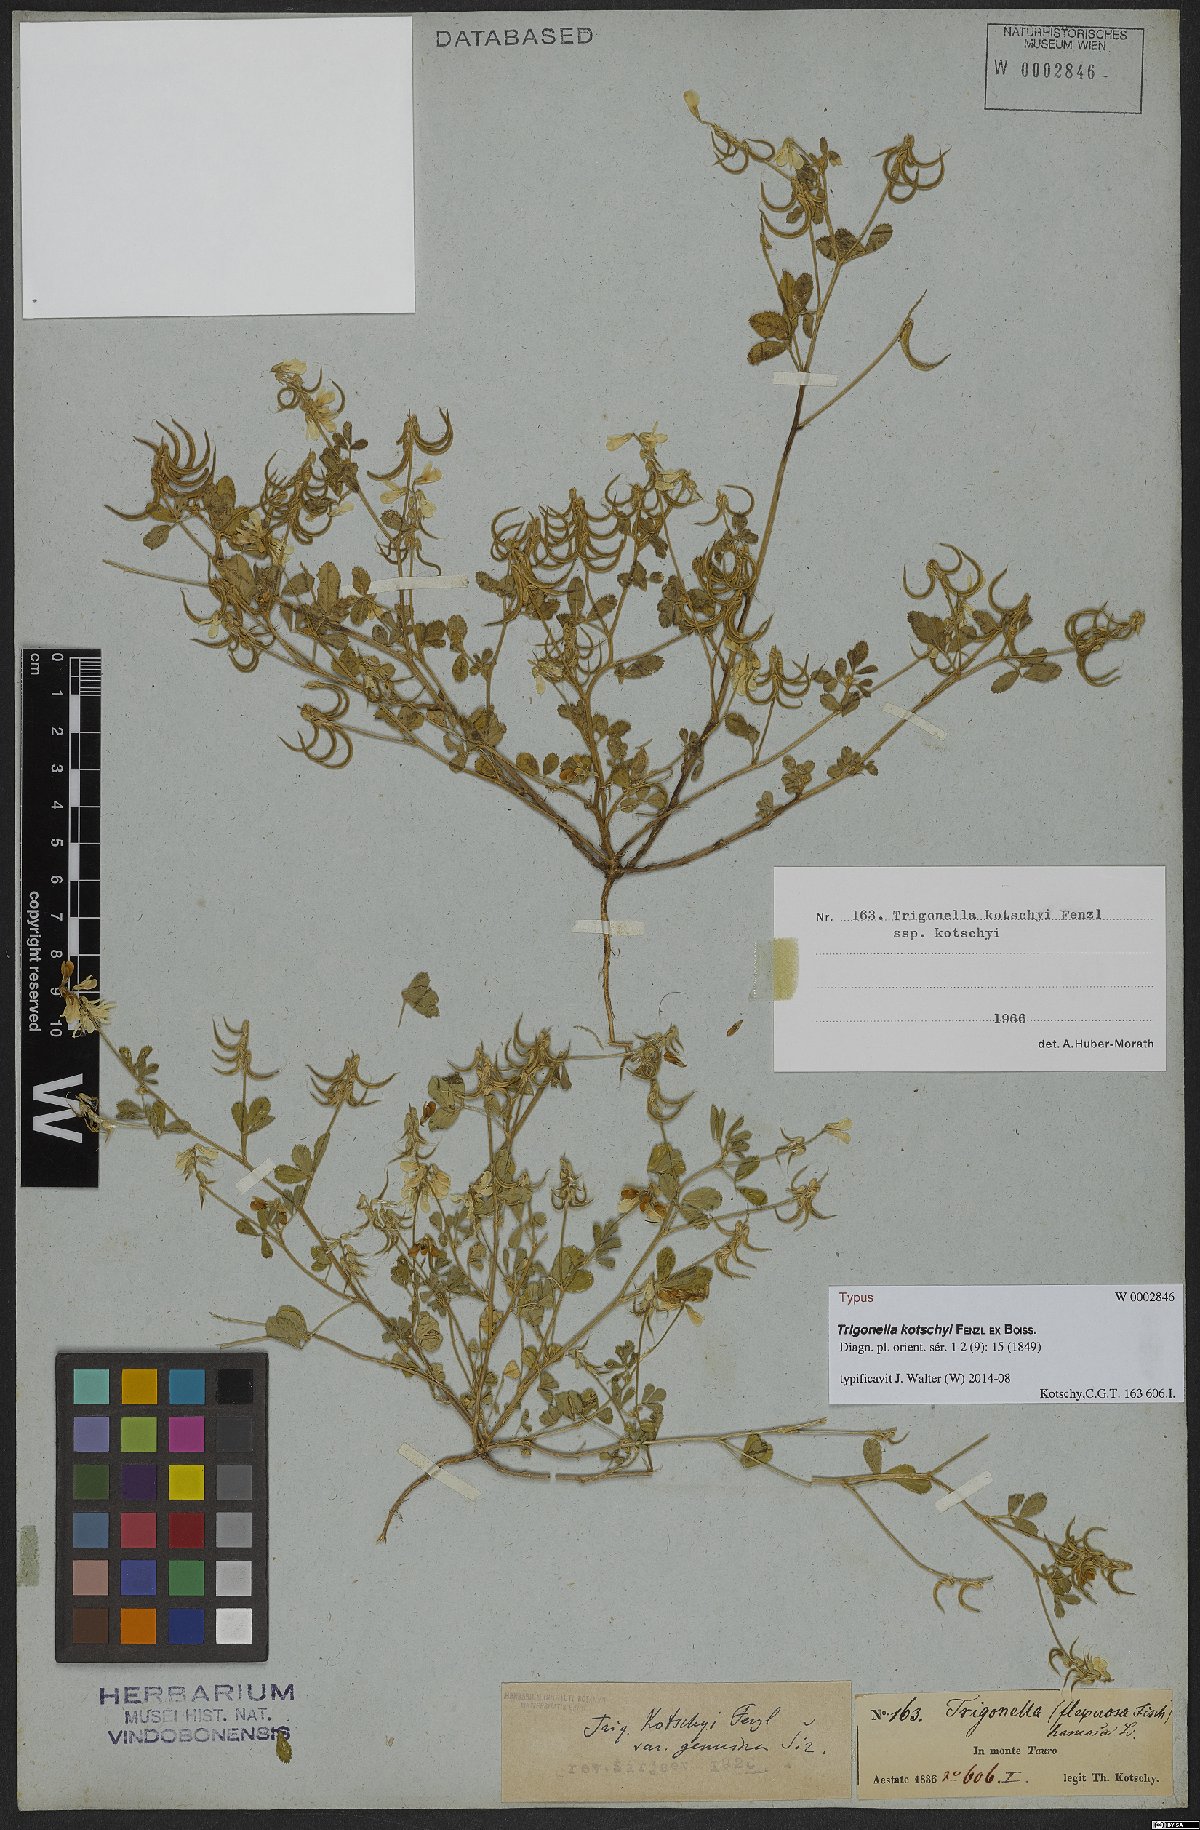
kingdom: Plantae
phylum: Tracheophyta
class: Magnoliopsida
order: Fabales
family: Fabaceae
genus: Trigonella
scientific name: Trigonella kotschyi
